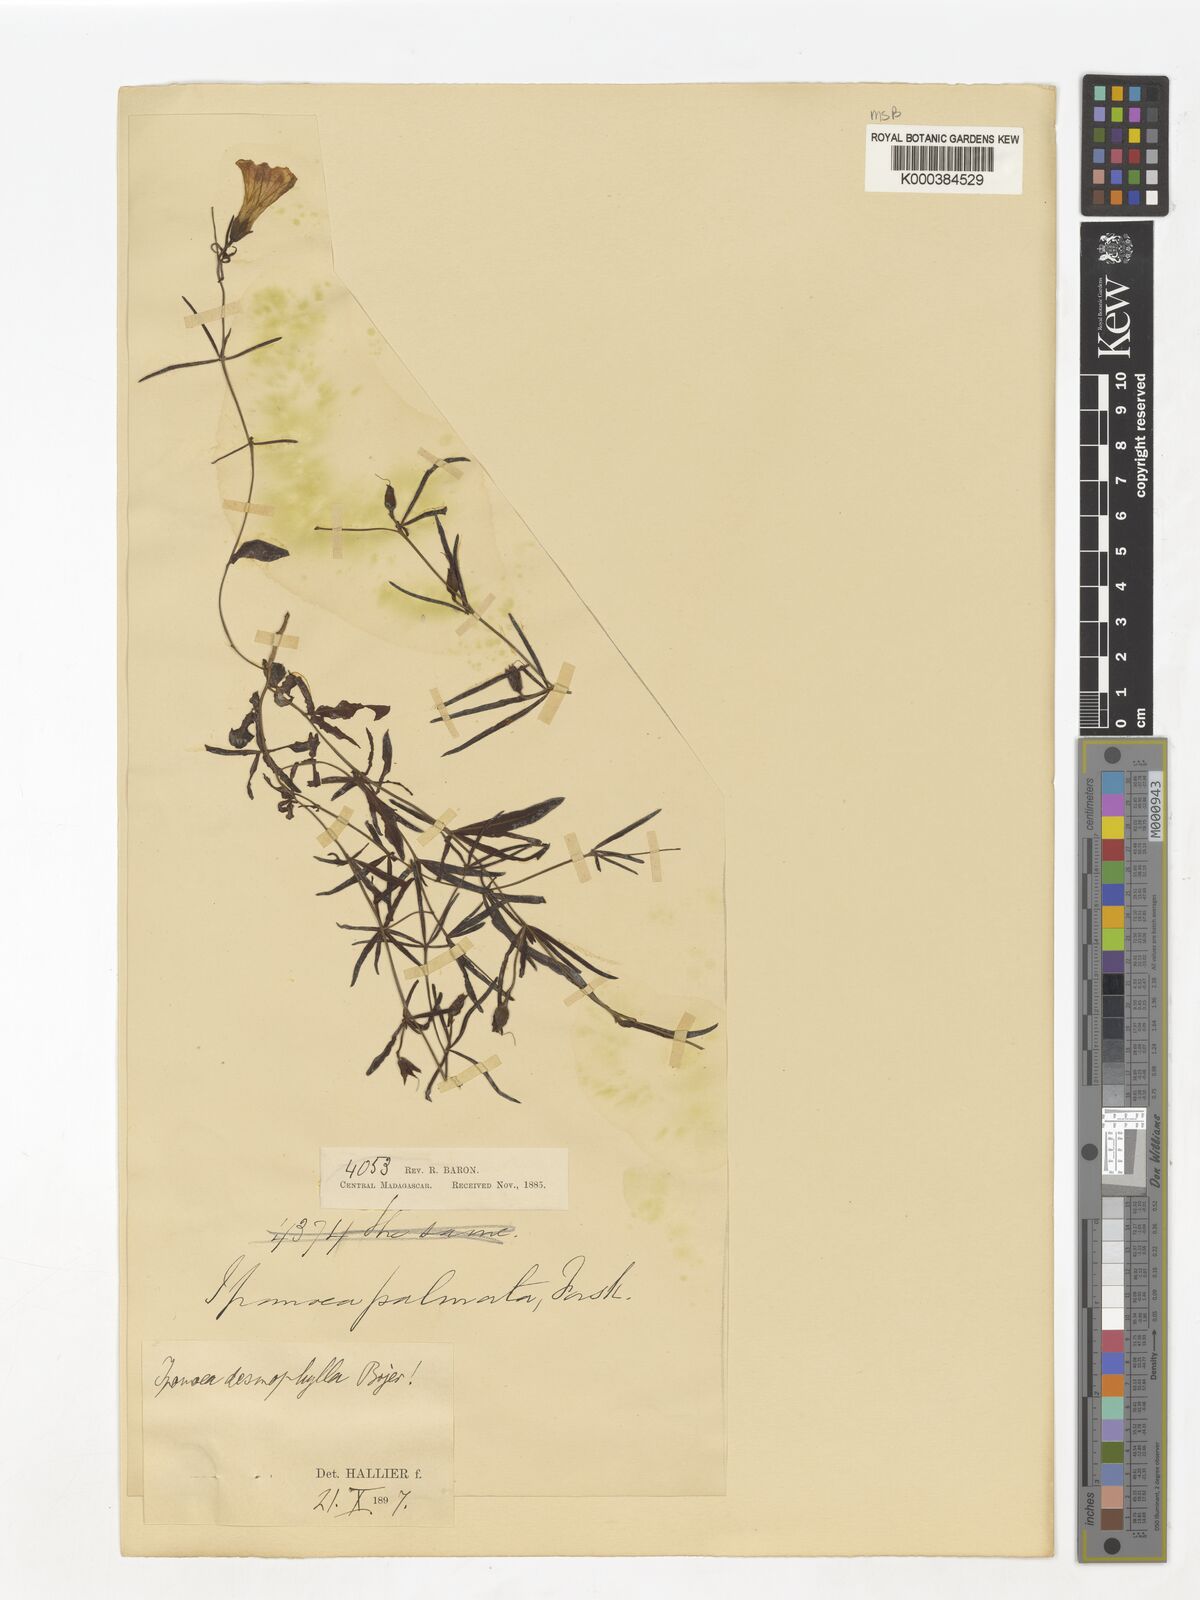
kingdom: Plantae
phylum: Tracheophyta
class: Magnoliopsida
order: Solanales
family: Convolvulaceae
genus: Ipomoea
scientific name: Ipomoea desmophylla
